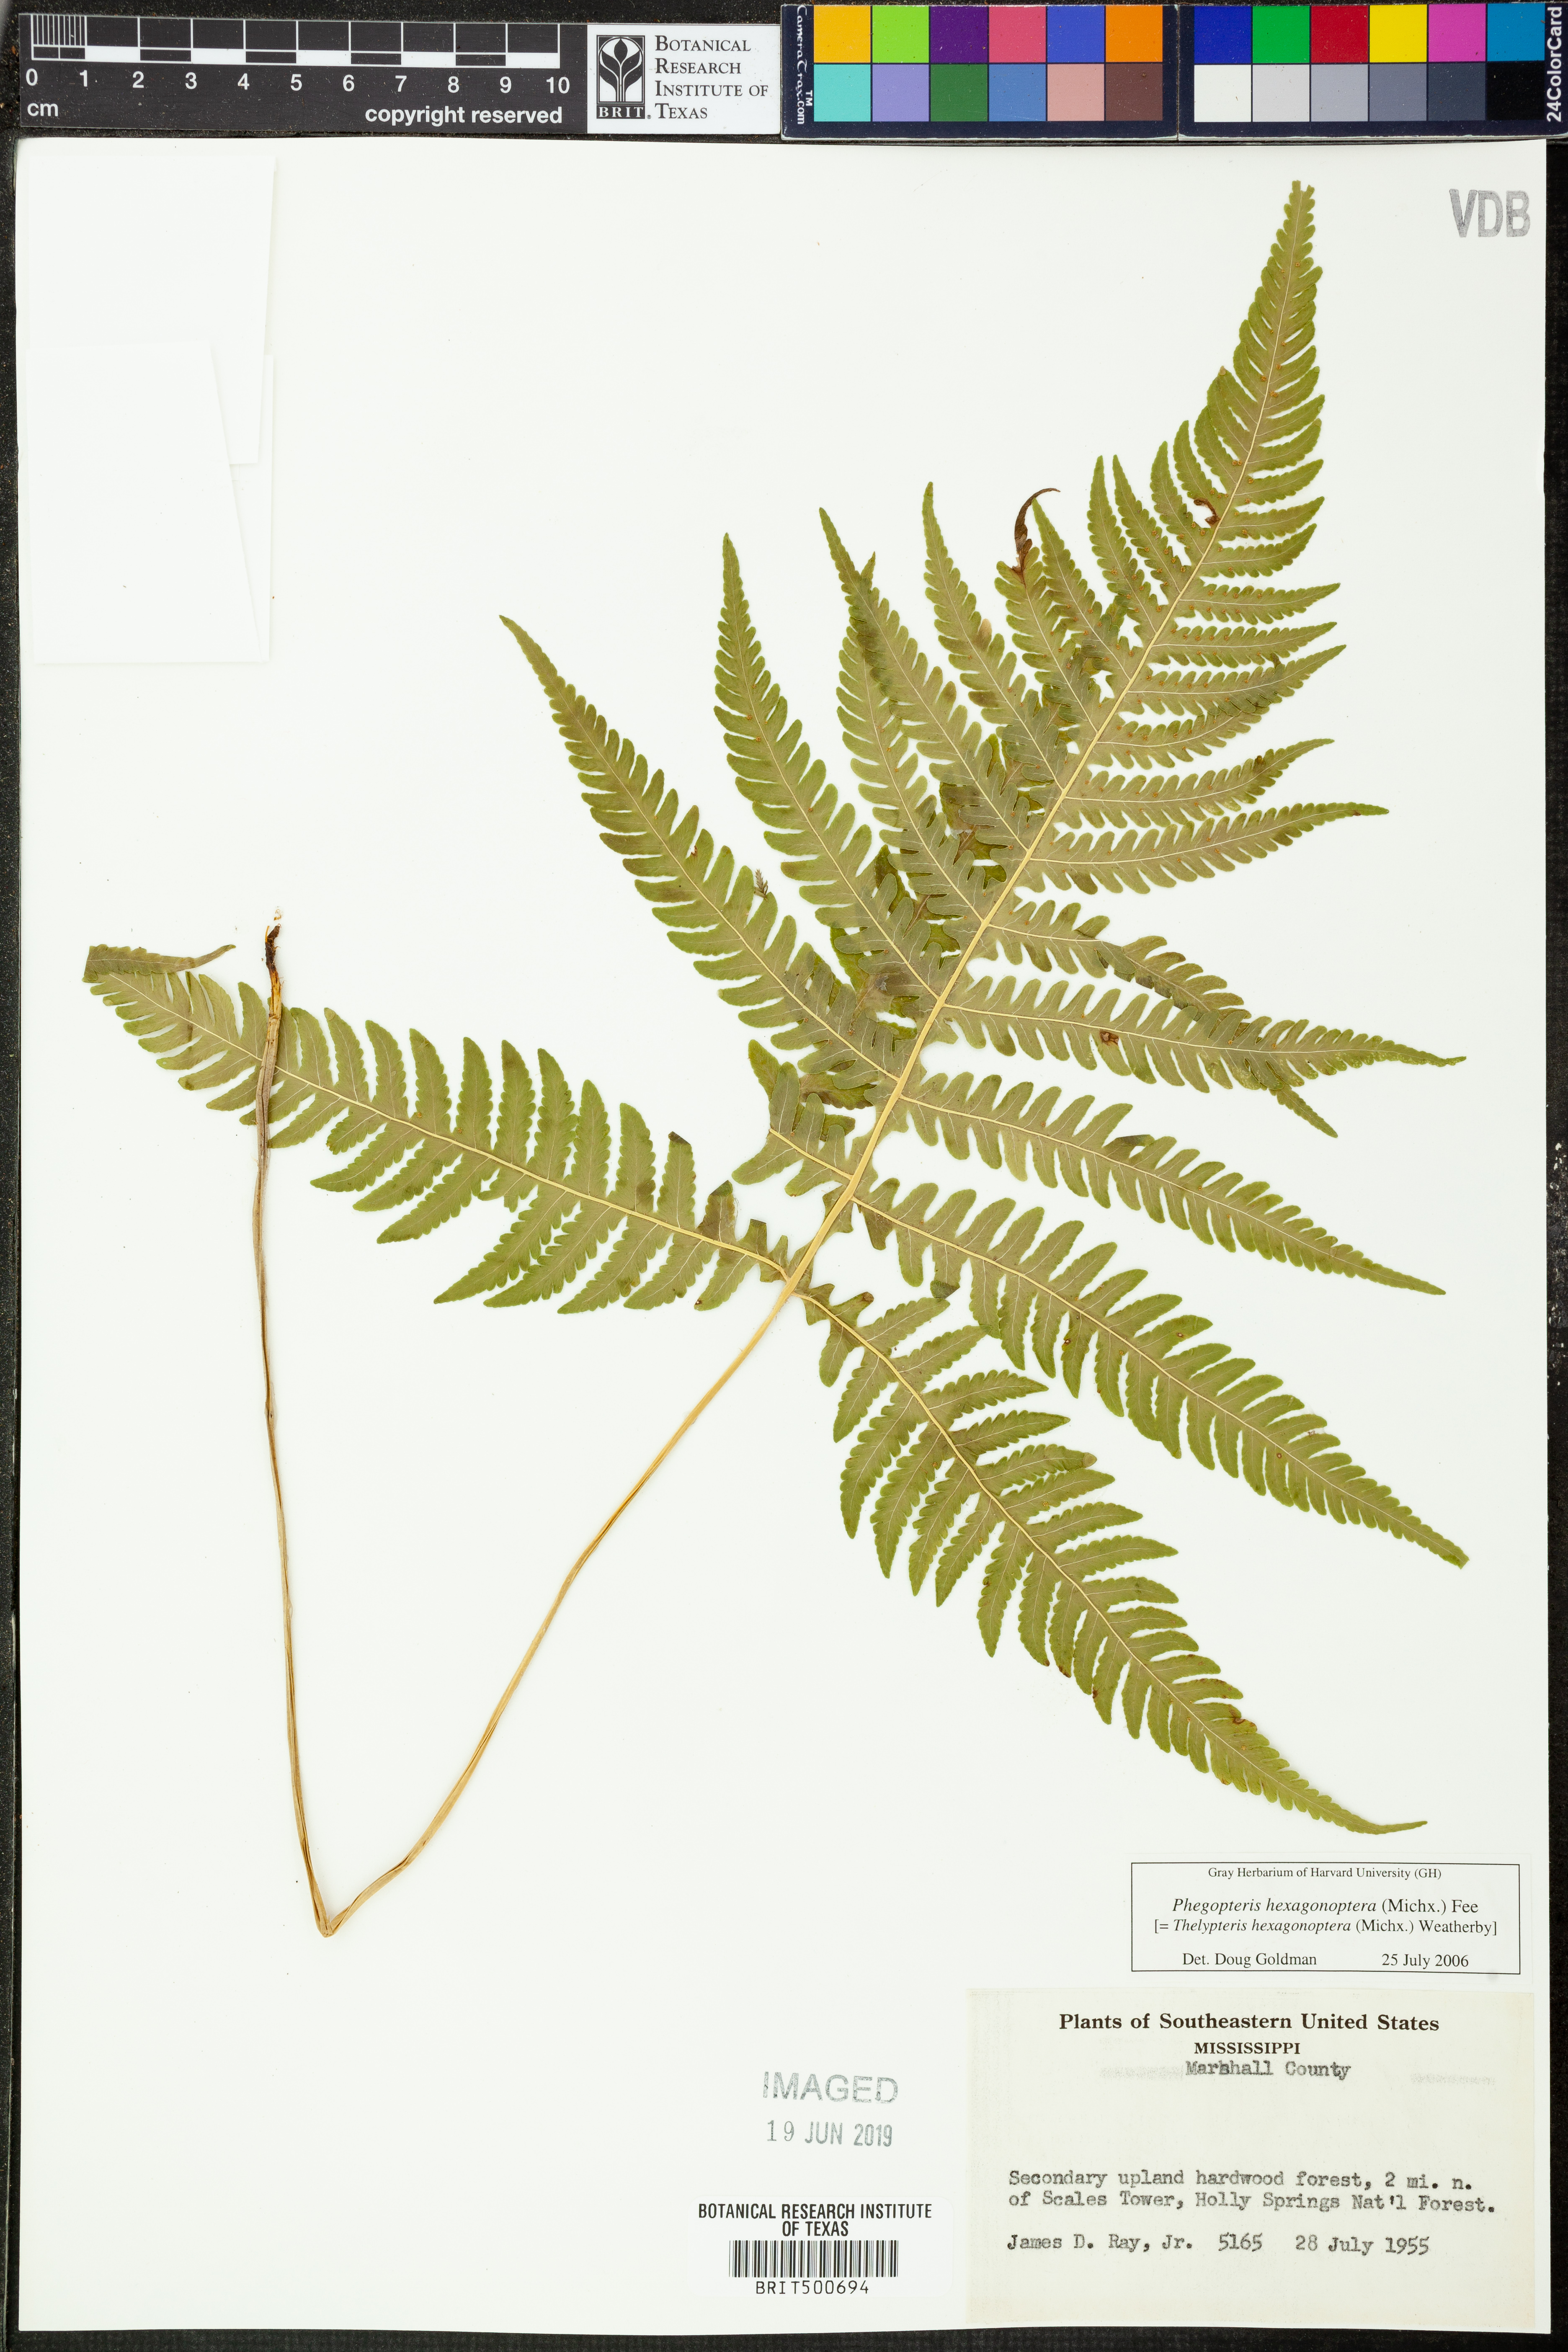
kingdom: Plantae
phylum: Tracheophyta
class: Polypodiopsida
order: Polypodiales
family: Thelypteridaceae
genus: Phegopteris
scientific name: Phegopteris hexagonoptera
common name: Broad beech fern
